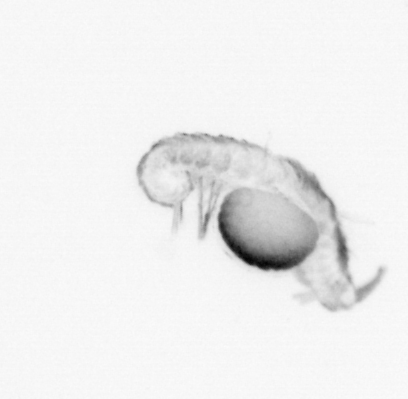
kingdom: Animalia
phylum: Annelida
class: Polychaeta
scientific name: Polychaeta
